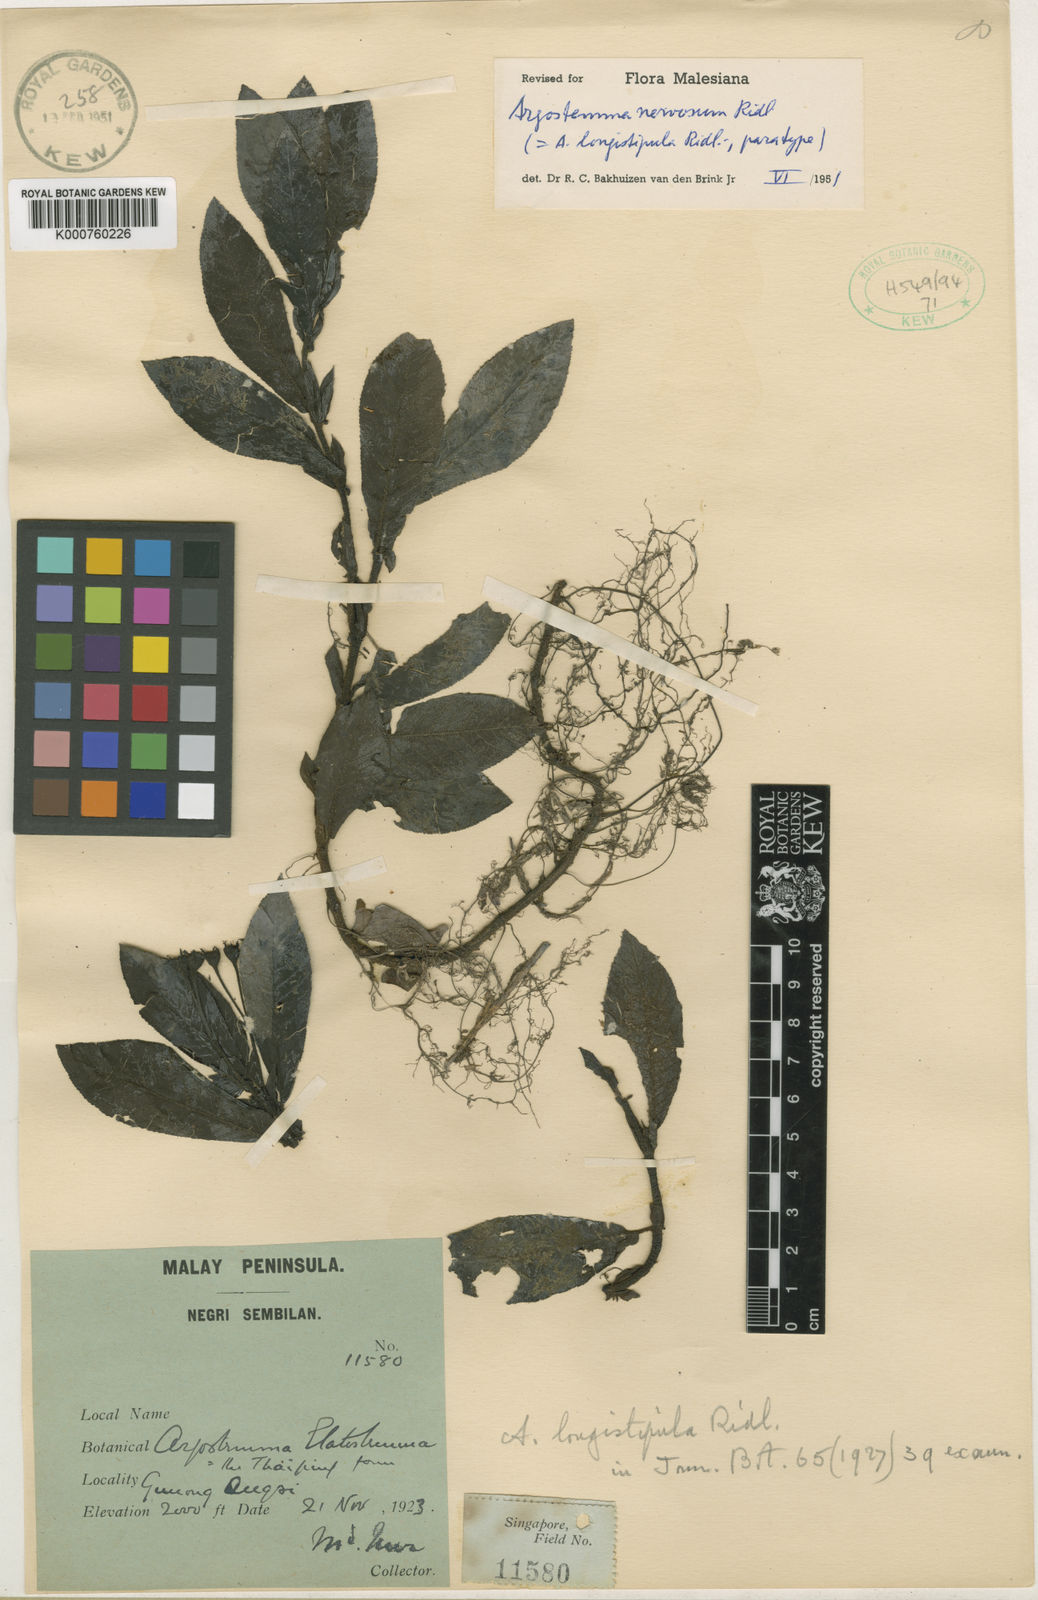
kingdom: Plantae
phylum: Tracheophyta
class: Magnoliopsida
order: Gentianales
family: Rubiaceae
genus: Argostemma
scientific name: Argostemma nervosum
